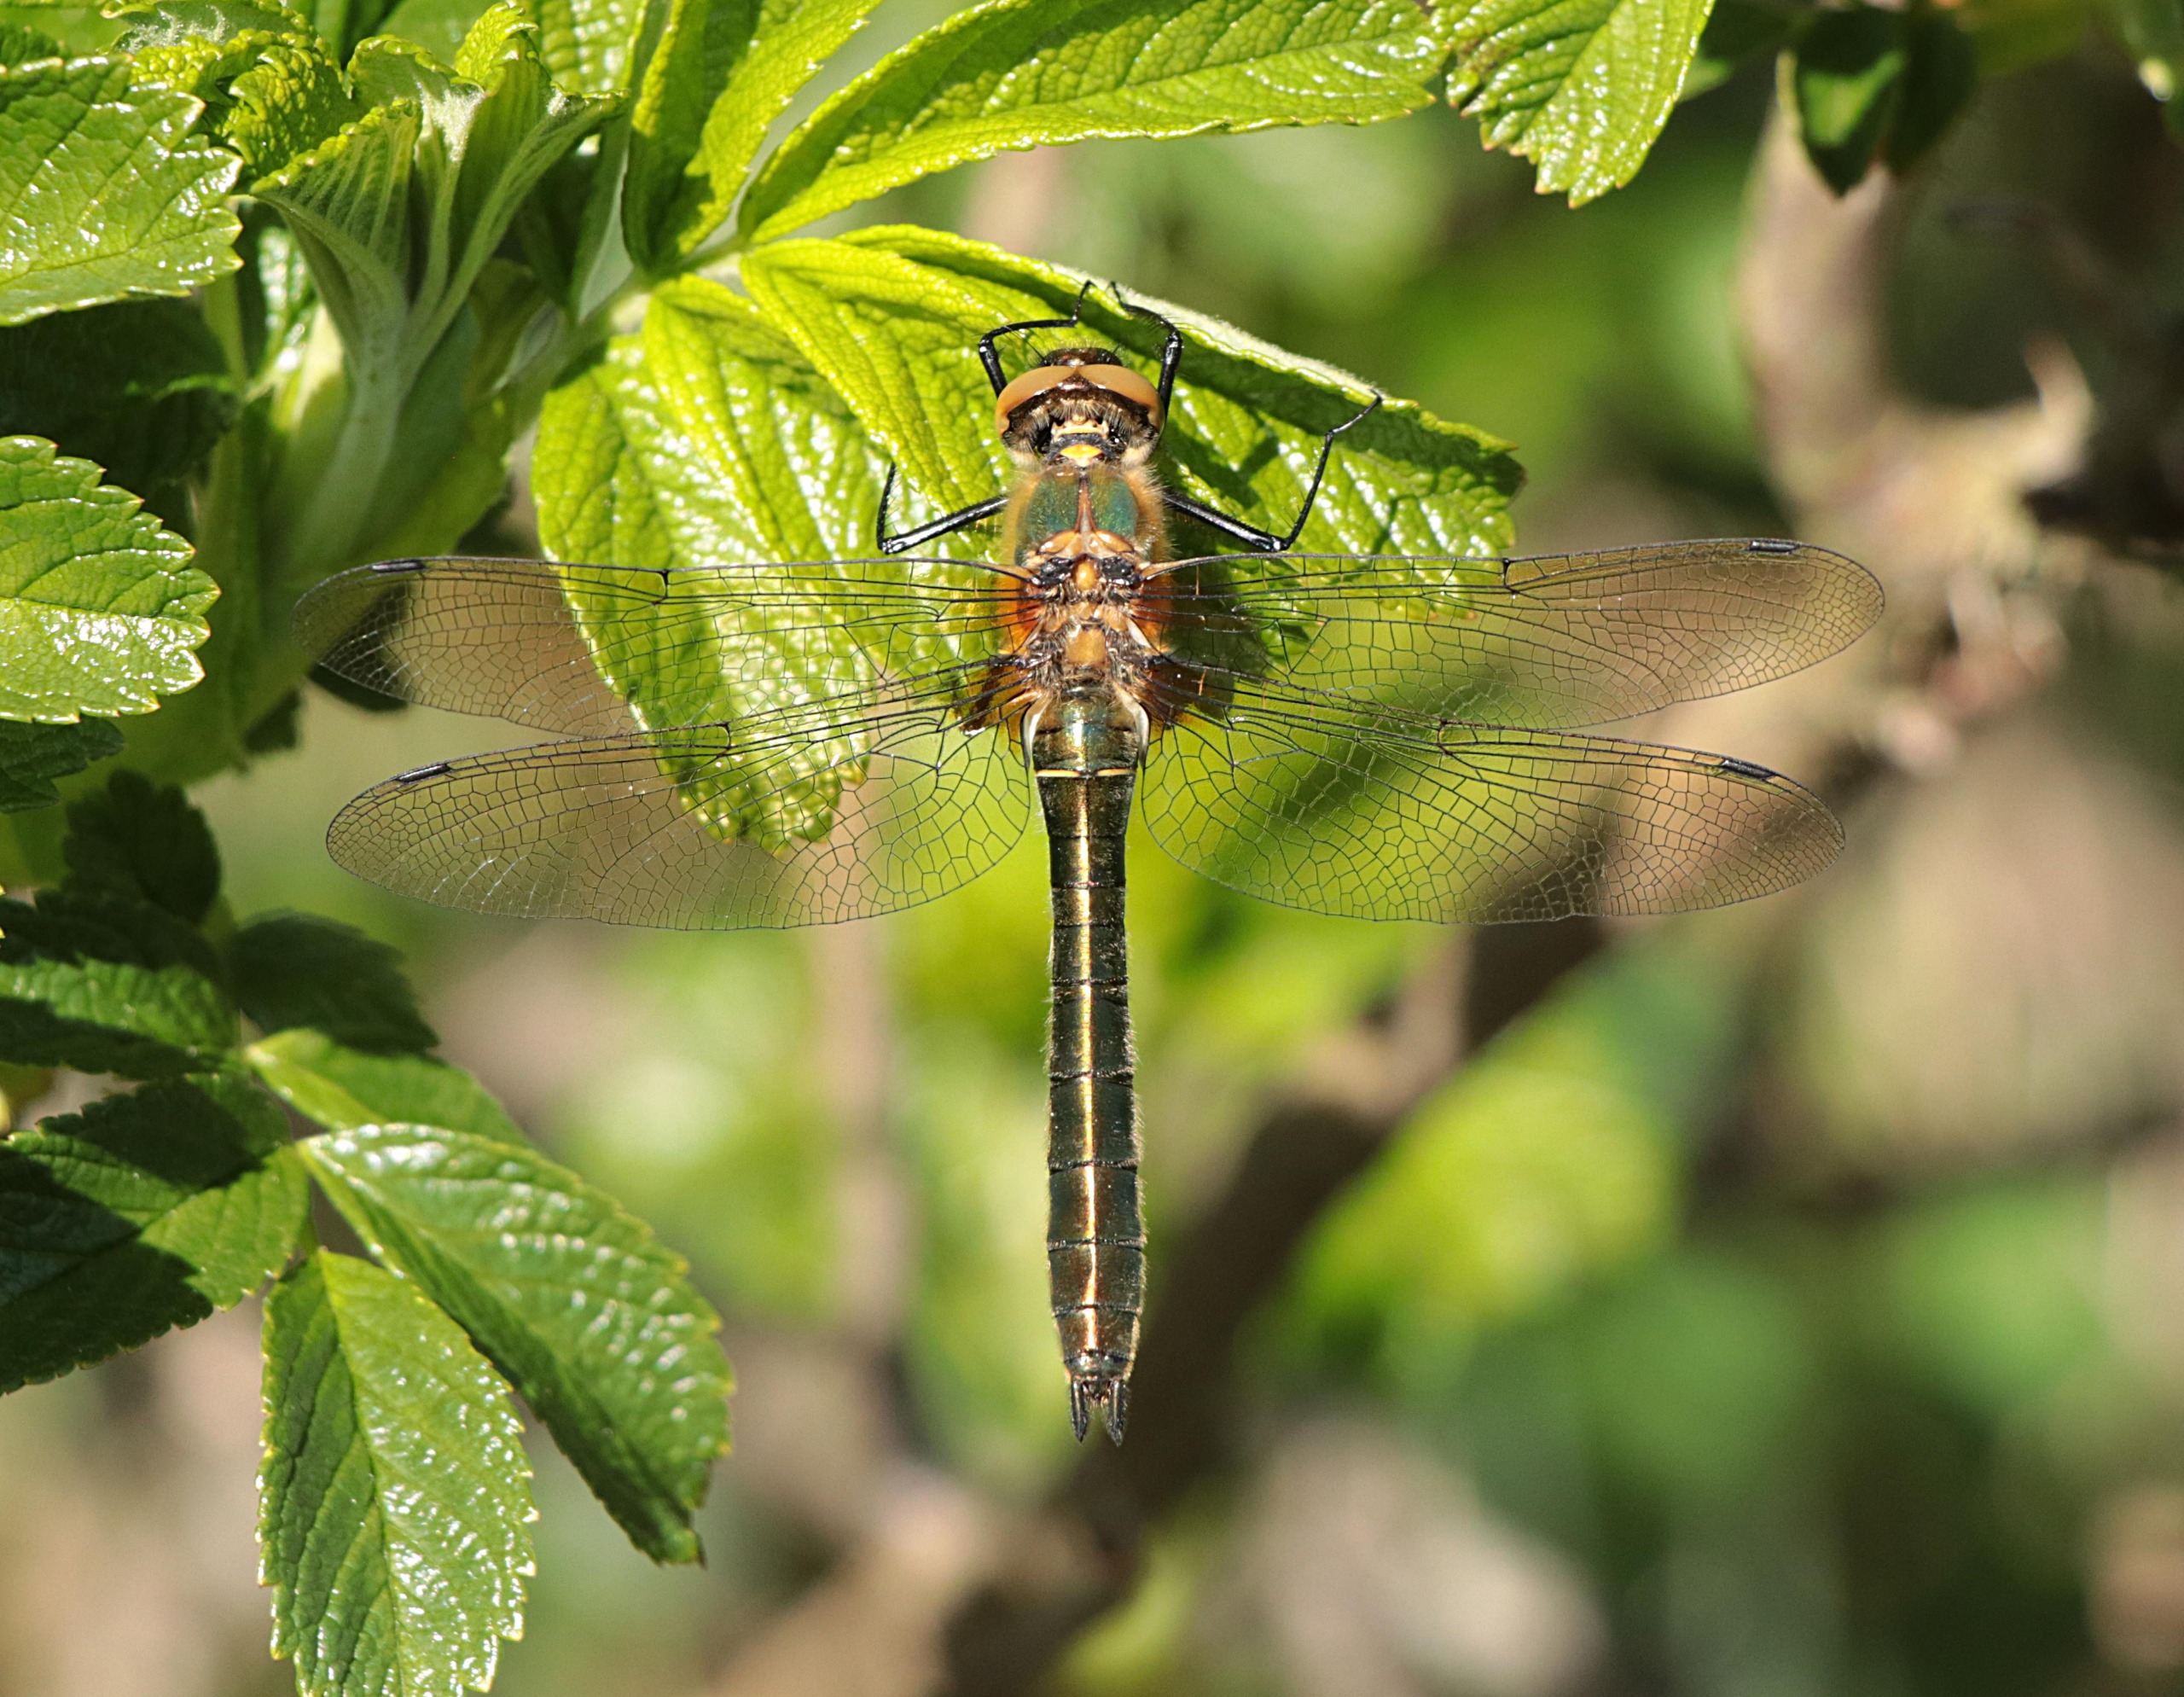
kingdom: Animalia
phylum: Arthropoda
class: Insecta
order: Odonata
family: Corduliidae
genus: Cordulia
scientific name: Cordulia aenea
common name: Grøn smaragdlibel
